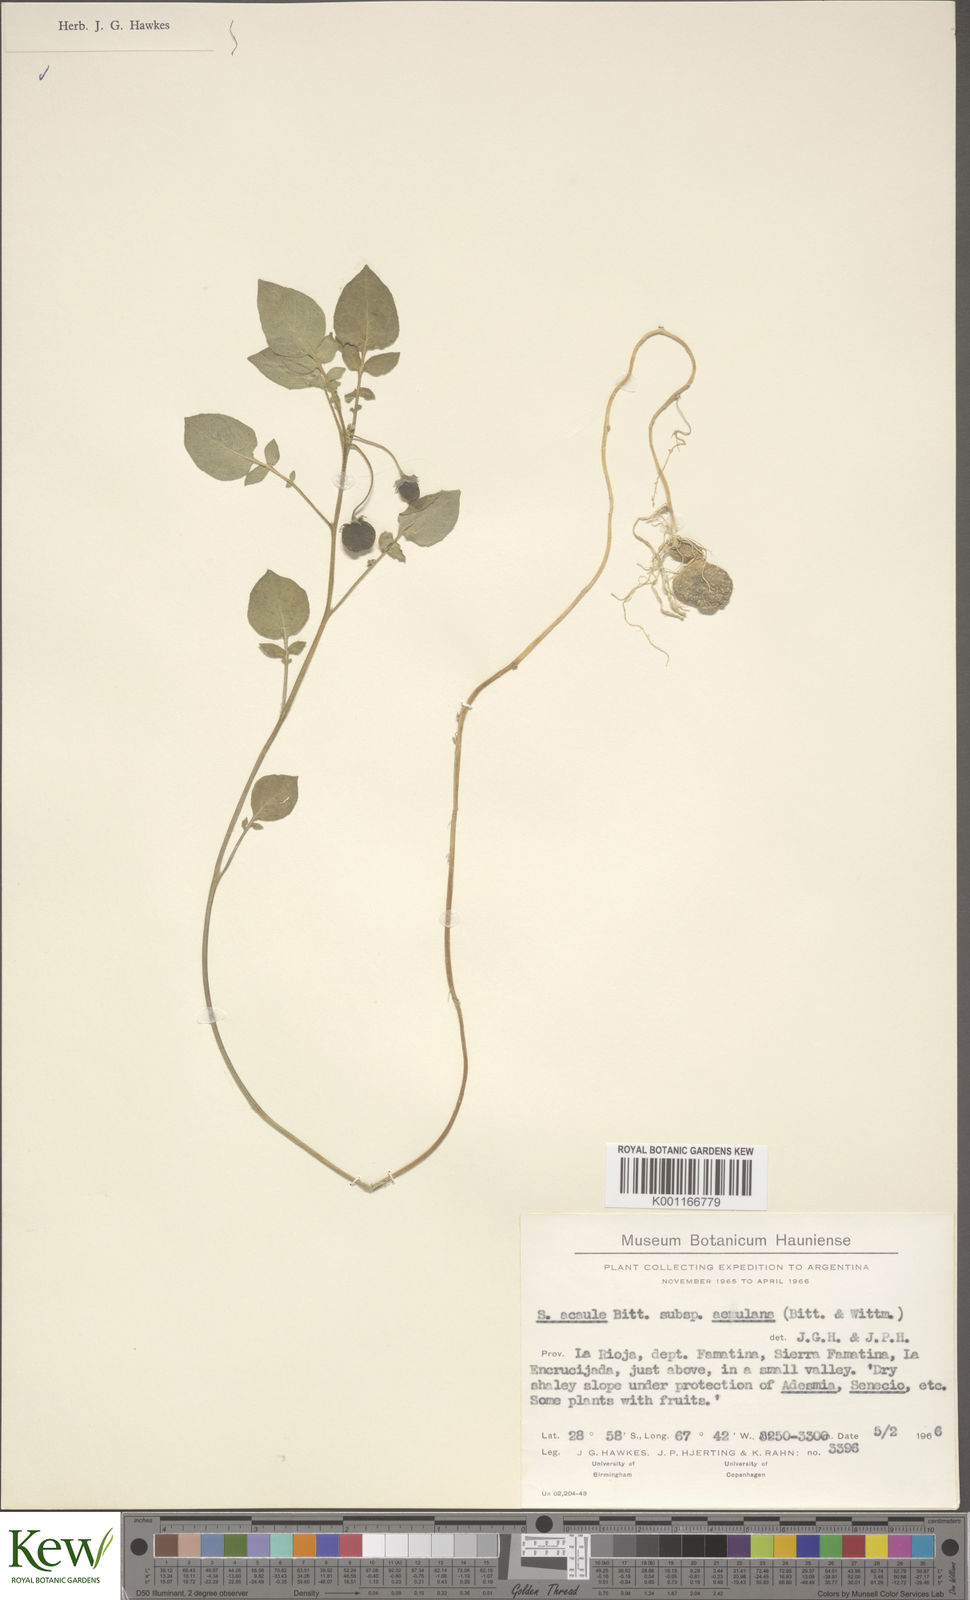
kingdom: Plantae
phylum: Tracheophyta
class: Magnoliopsida
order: Solanales
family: Solanaceae
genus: Solanum
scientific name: Solanum aemulans
